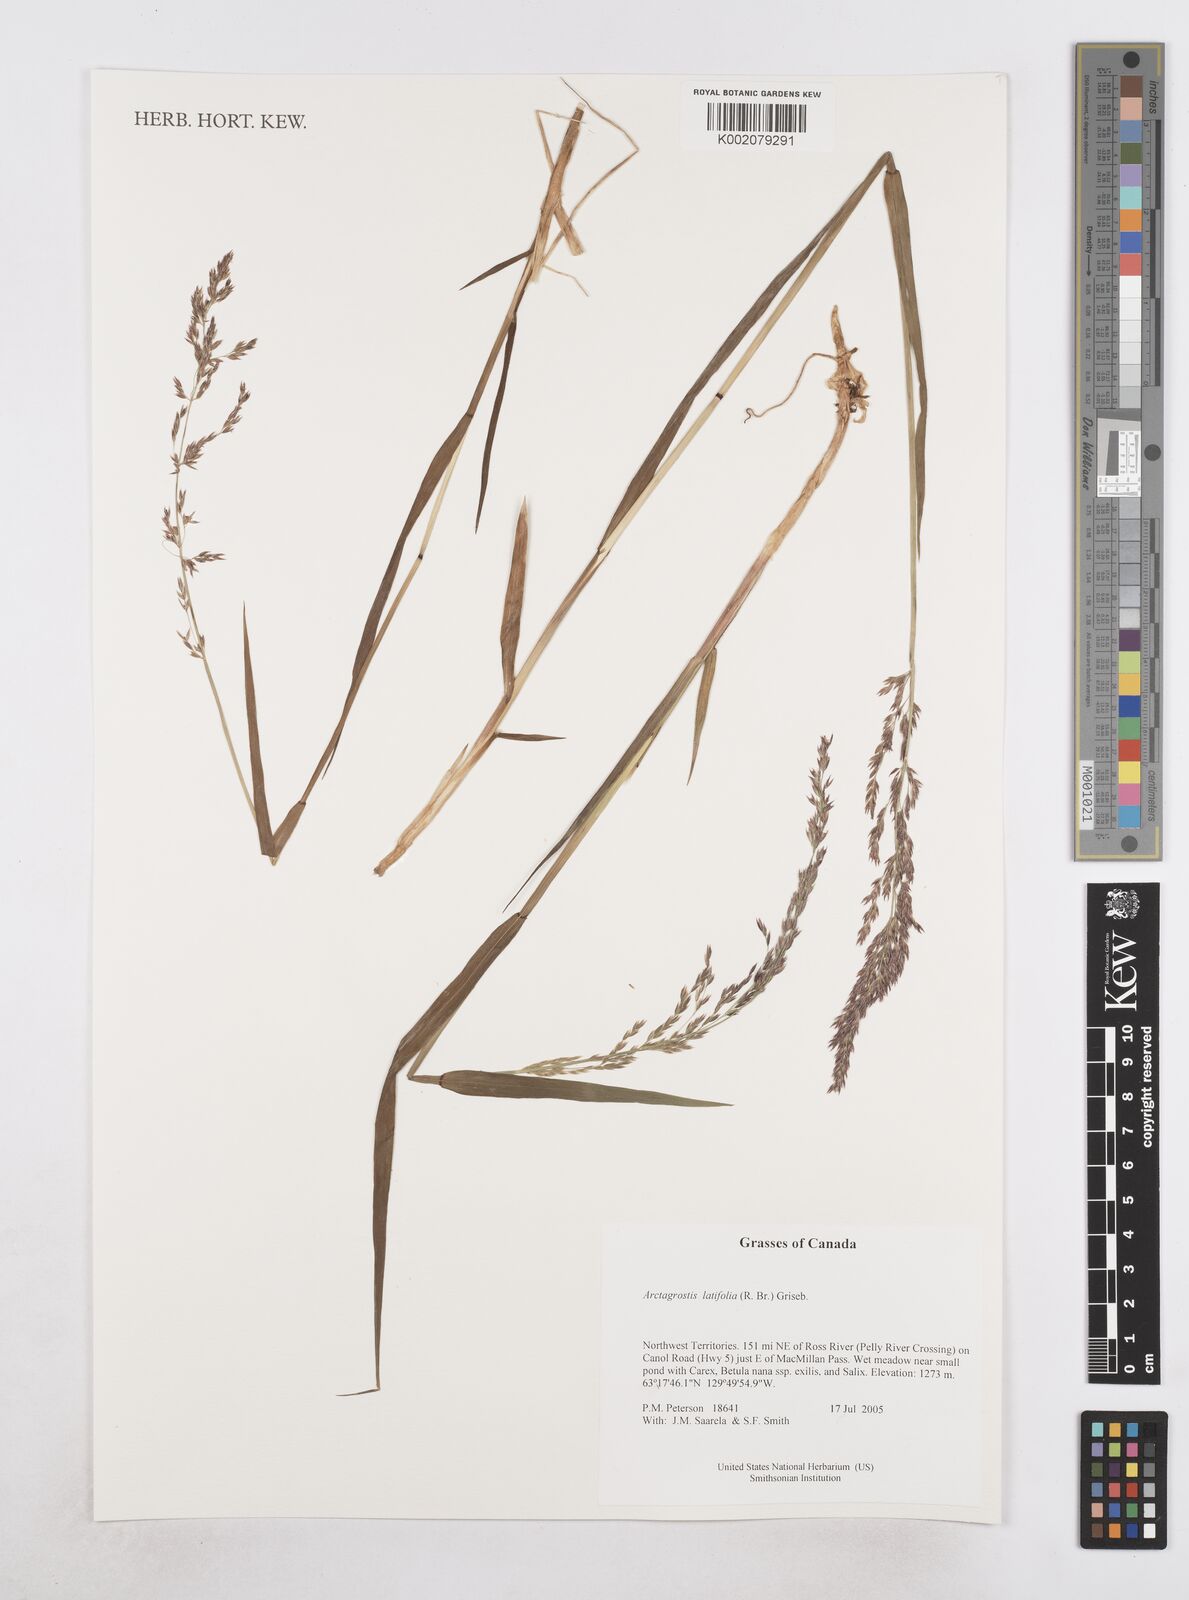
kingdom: Plantae
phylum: Tracheophyta
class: Liliopsida
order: Poales
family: Poaceae
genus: Arctagrostis
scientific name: Arctagrostis latifolia
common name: Arctic grass
